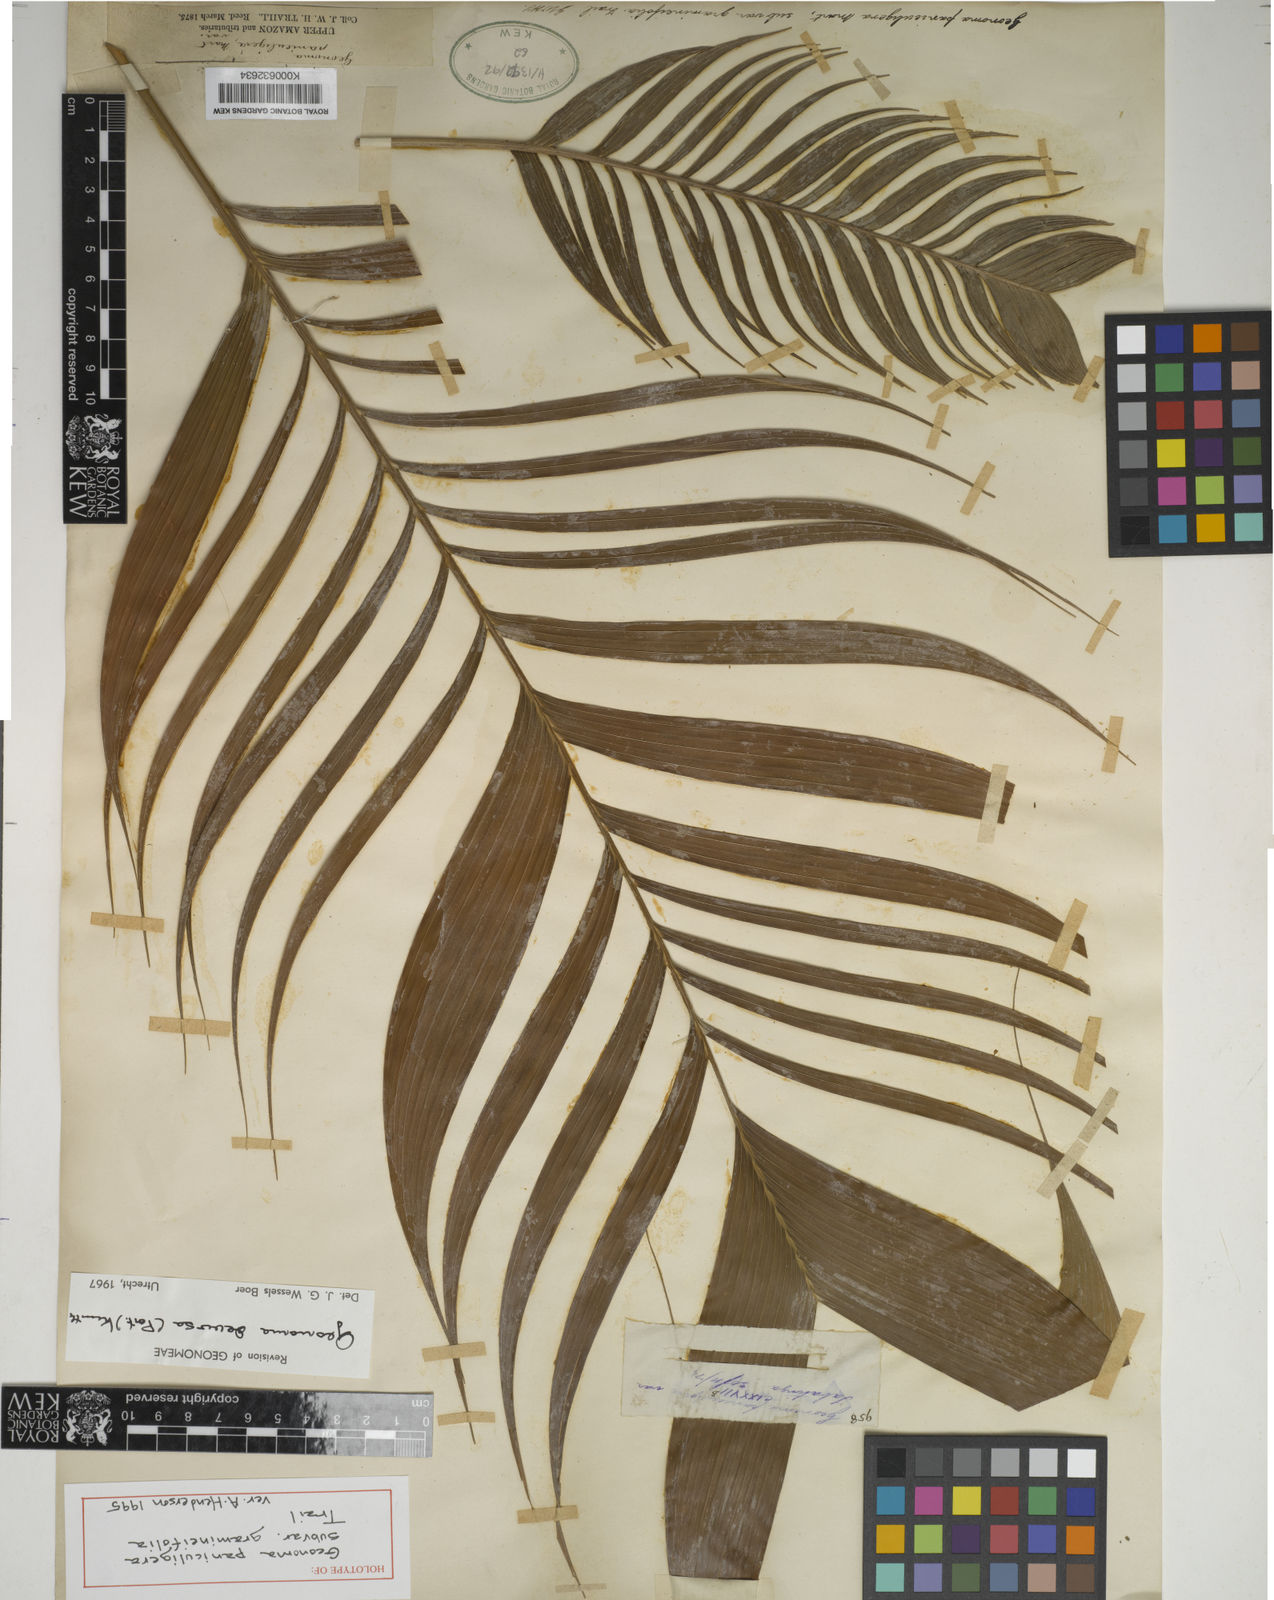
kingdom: Plantae
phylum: Tracheophyta
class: Liliopsida
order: Arecales
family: Arecaceae
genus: Geonoma
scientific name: Geonoma deversa
